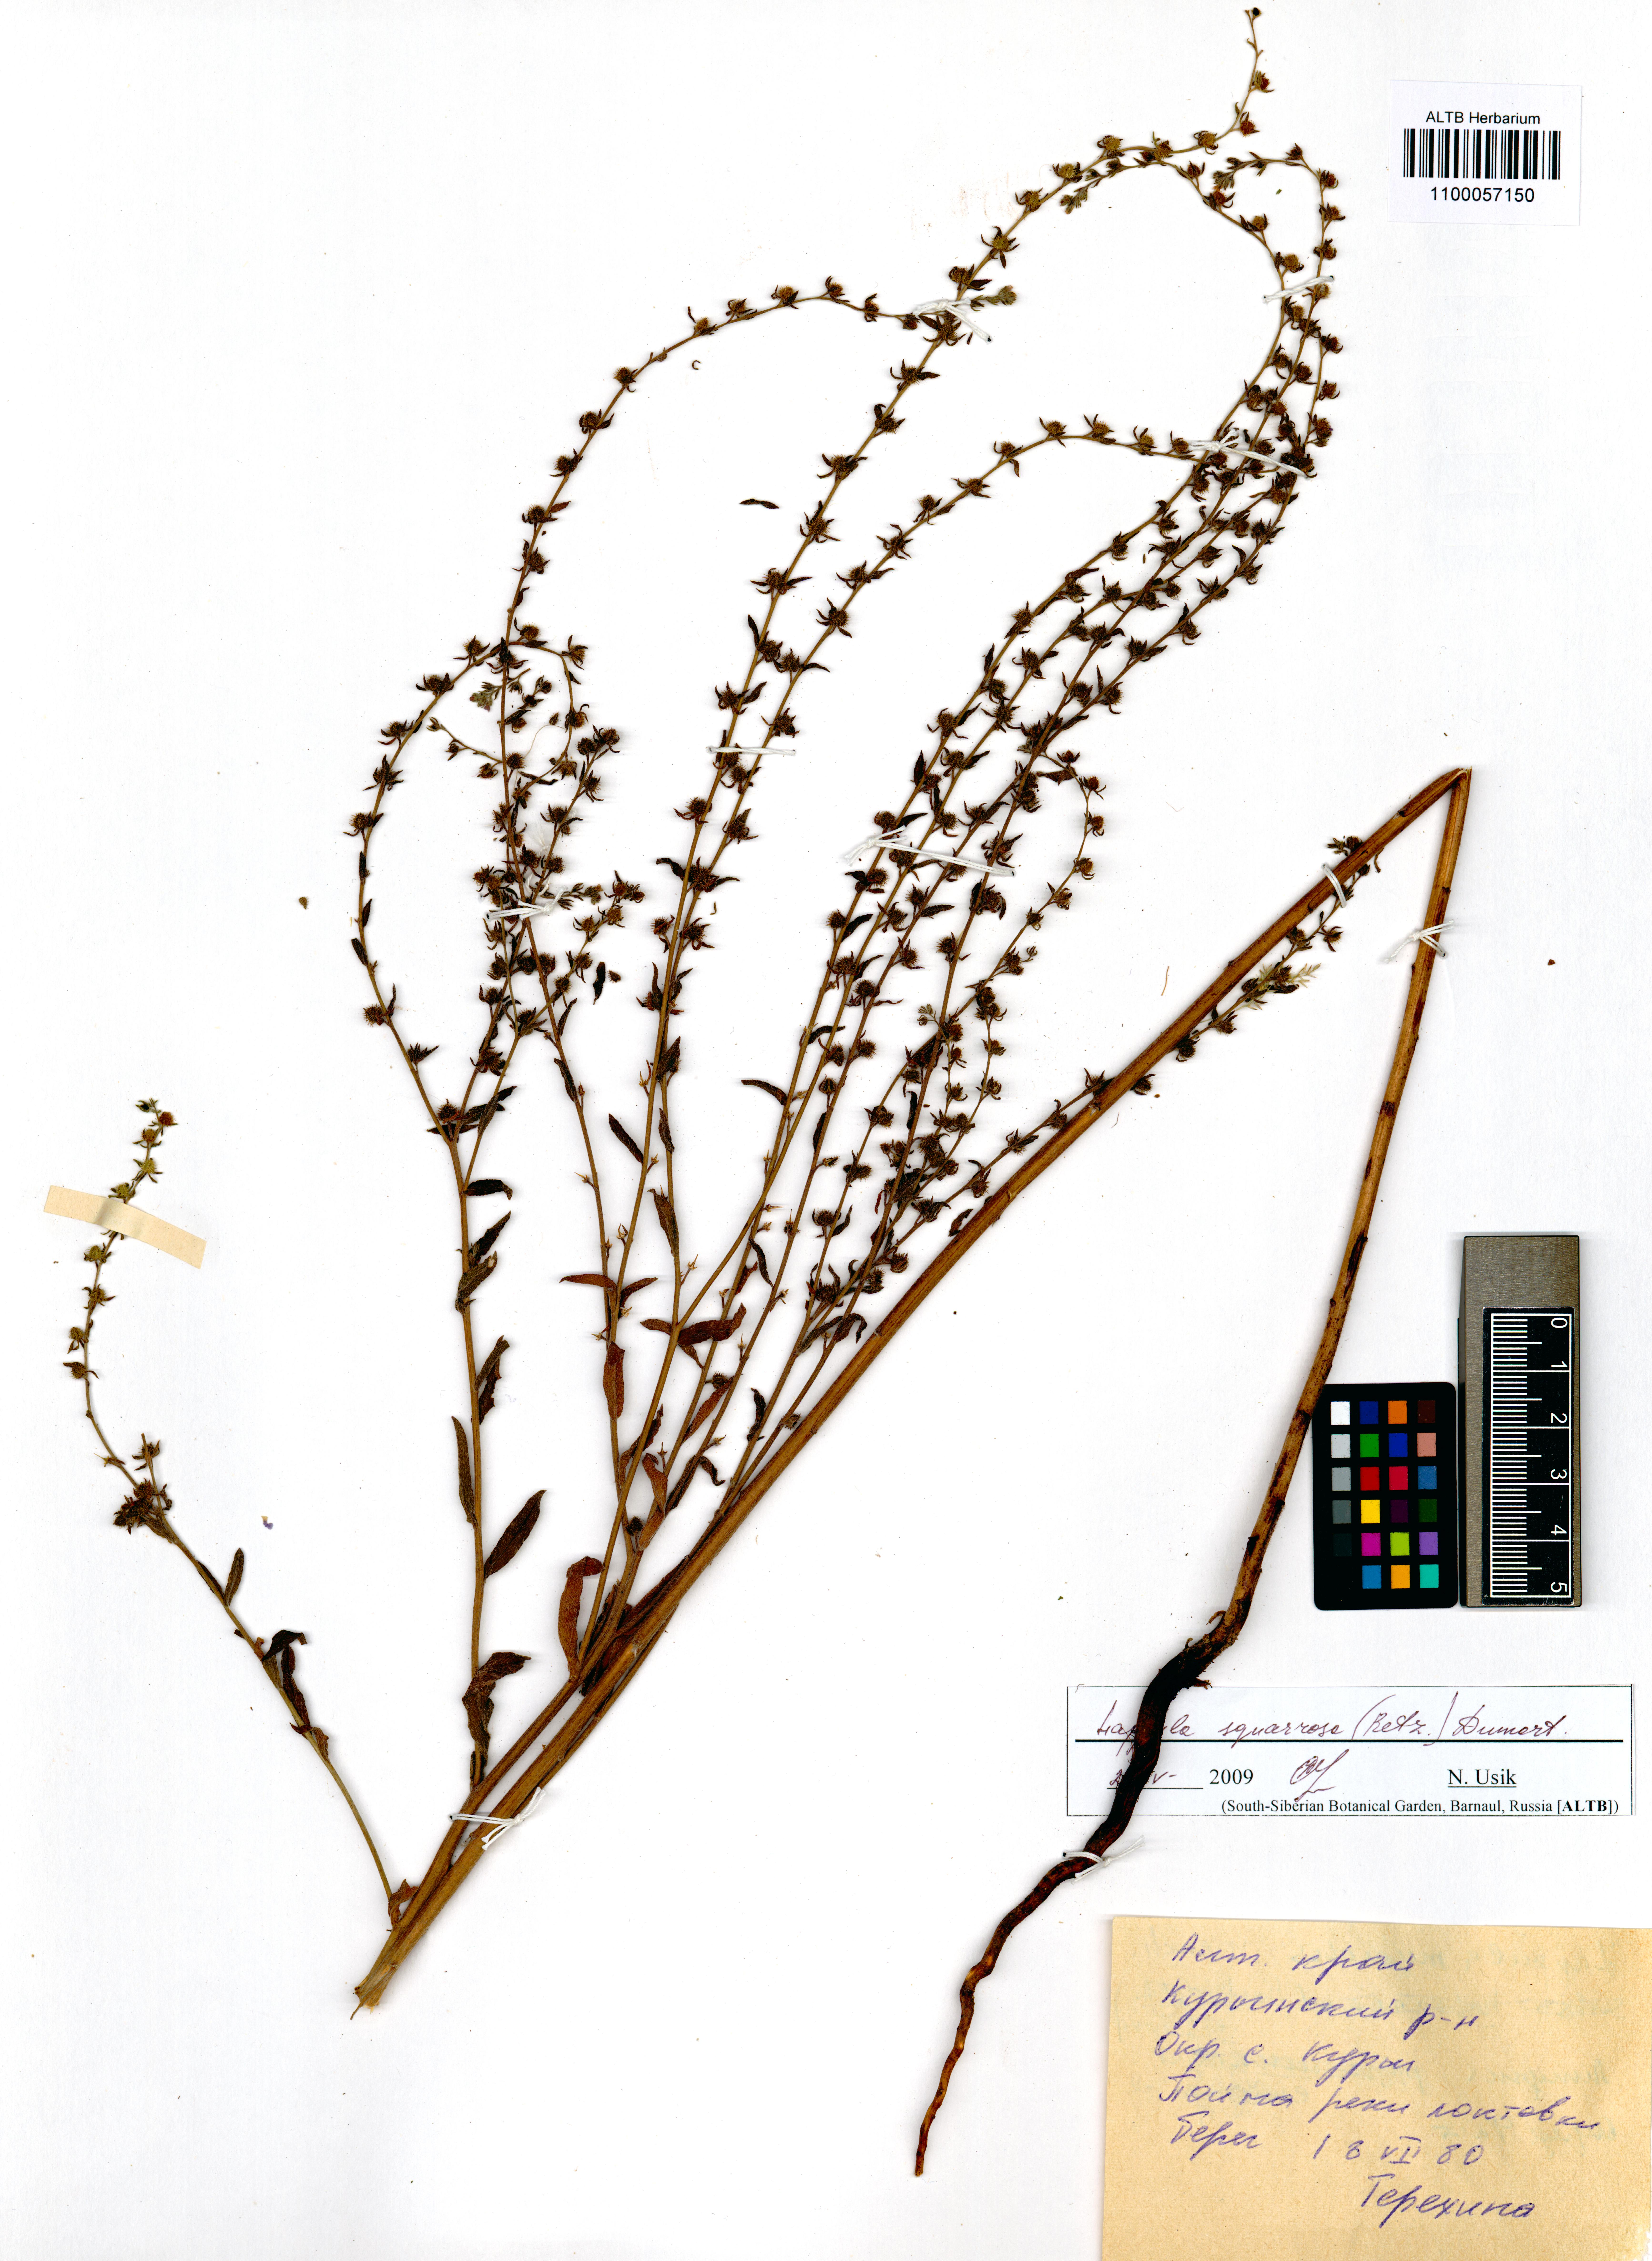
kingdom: Plantae
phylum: Tracheophyta
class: Magnoliopsida
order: Boraginales
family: Boraginaceae
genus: Lappula
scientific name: Lappula squarrosa
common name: European stickseed
